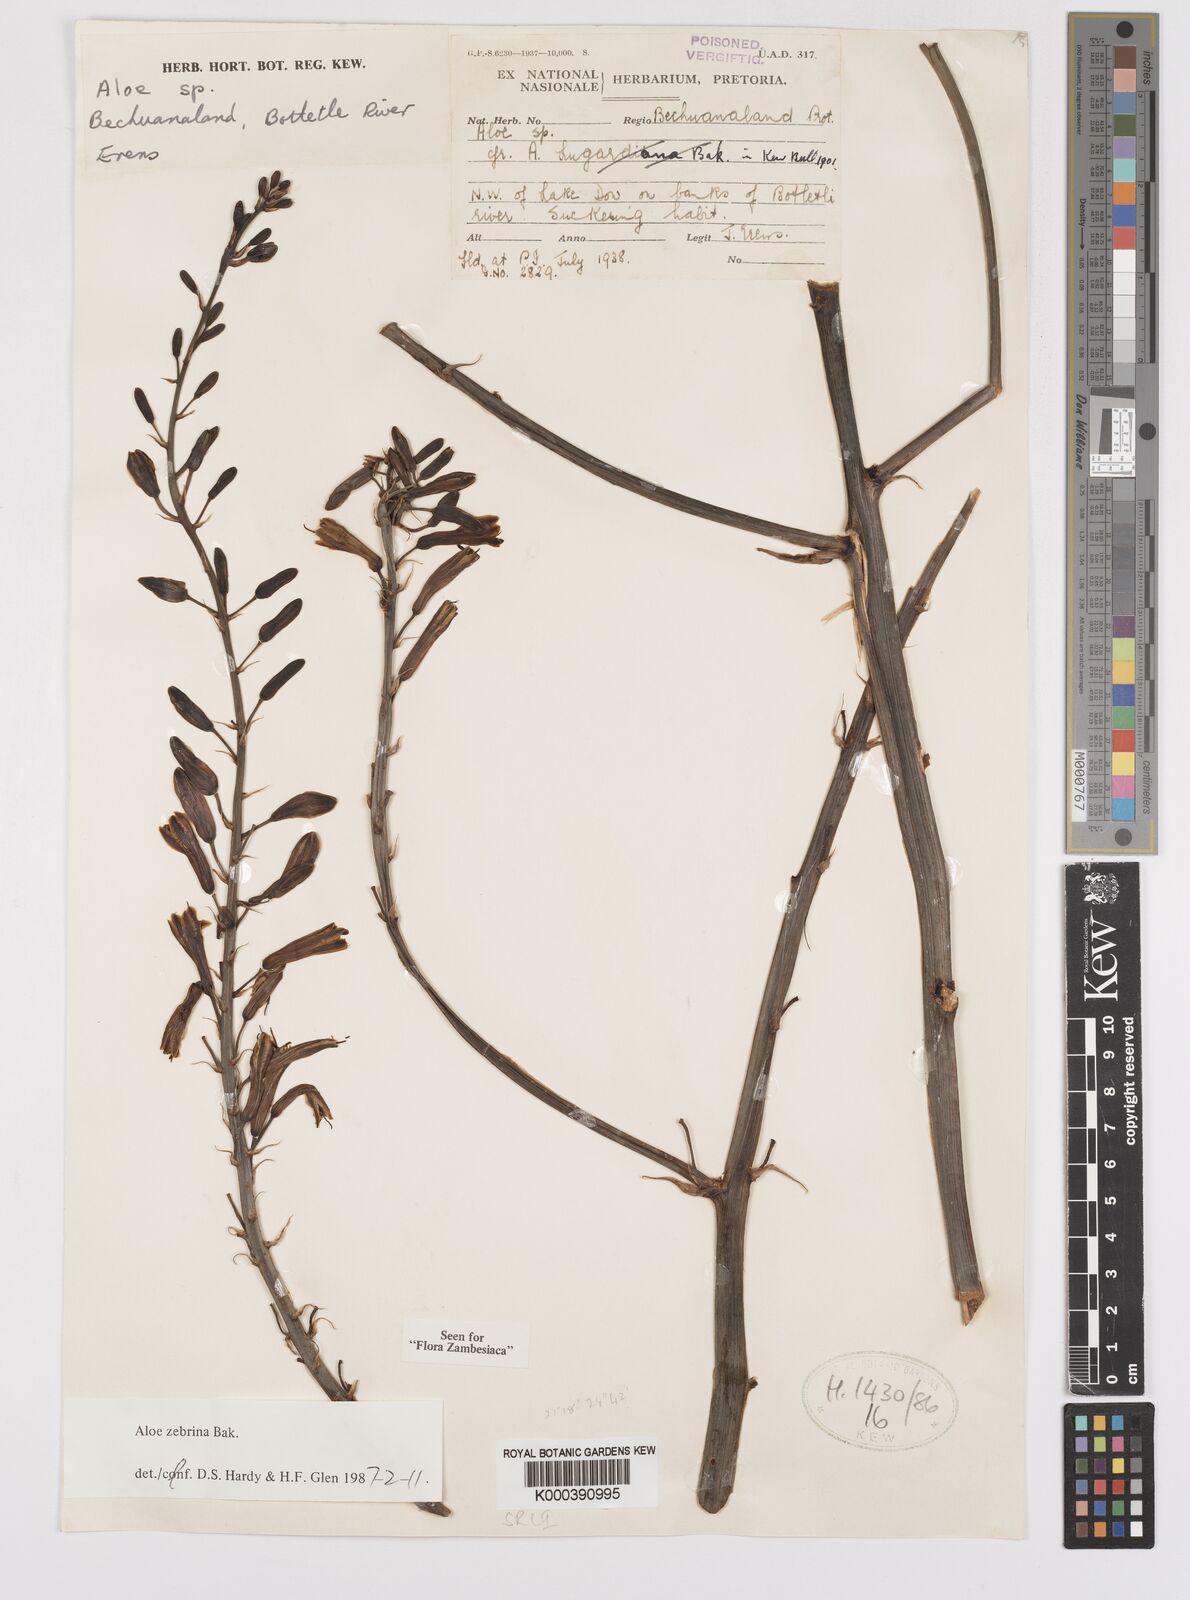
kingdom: Plantae
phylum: Tracheophyta
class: Liliopsida
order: Asparagales
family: Asphodelaceae
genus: Aloe
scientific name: Aloe zebrina
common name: Zebra-leaf aloe
